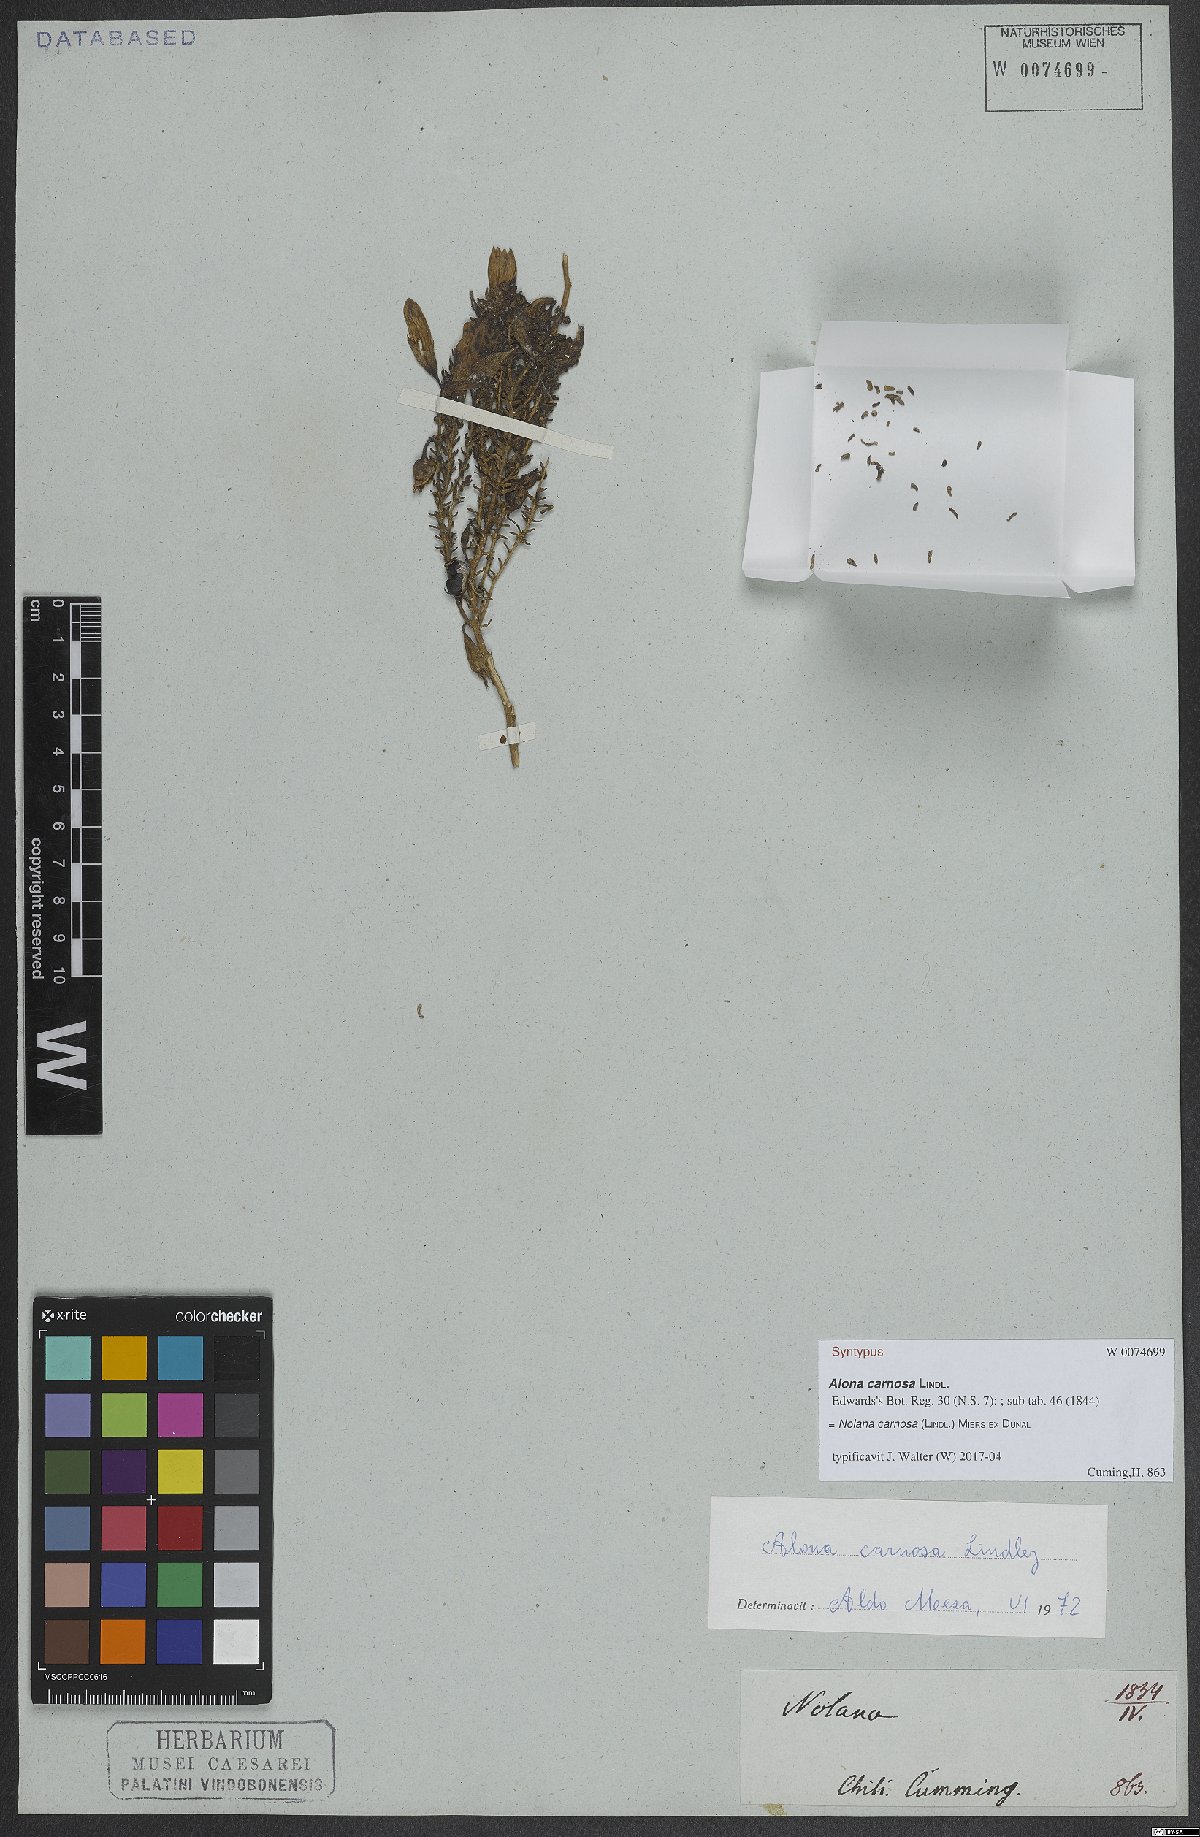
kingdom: Plantae
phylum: Tracheophyta
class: Magnoliopsida
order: Solanales
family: Solanaceae
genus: Nolana
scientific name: Nolana carnosa
